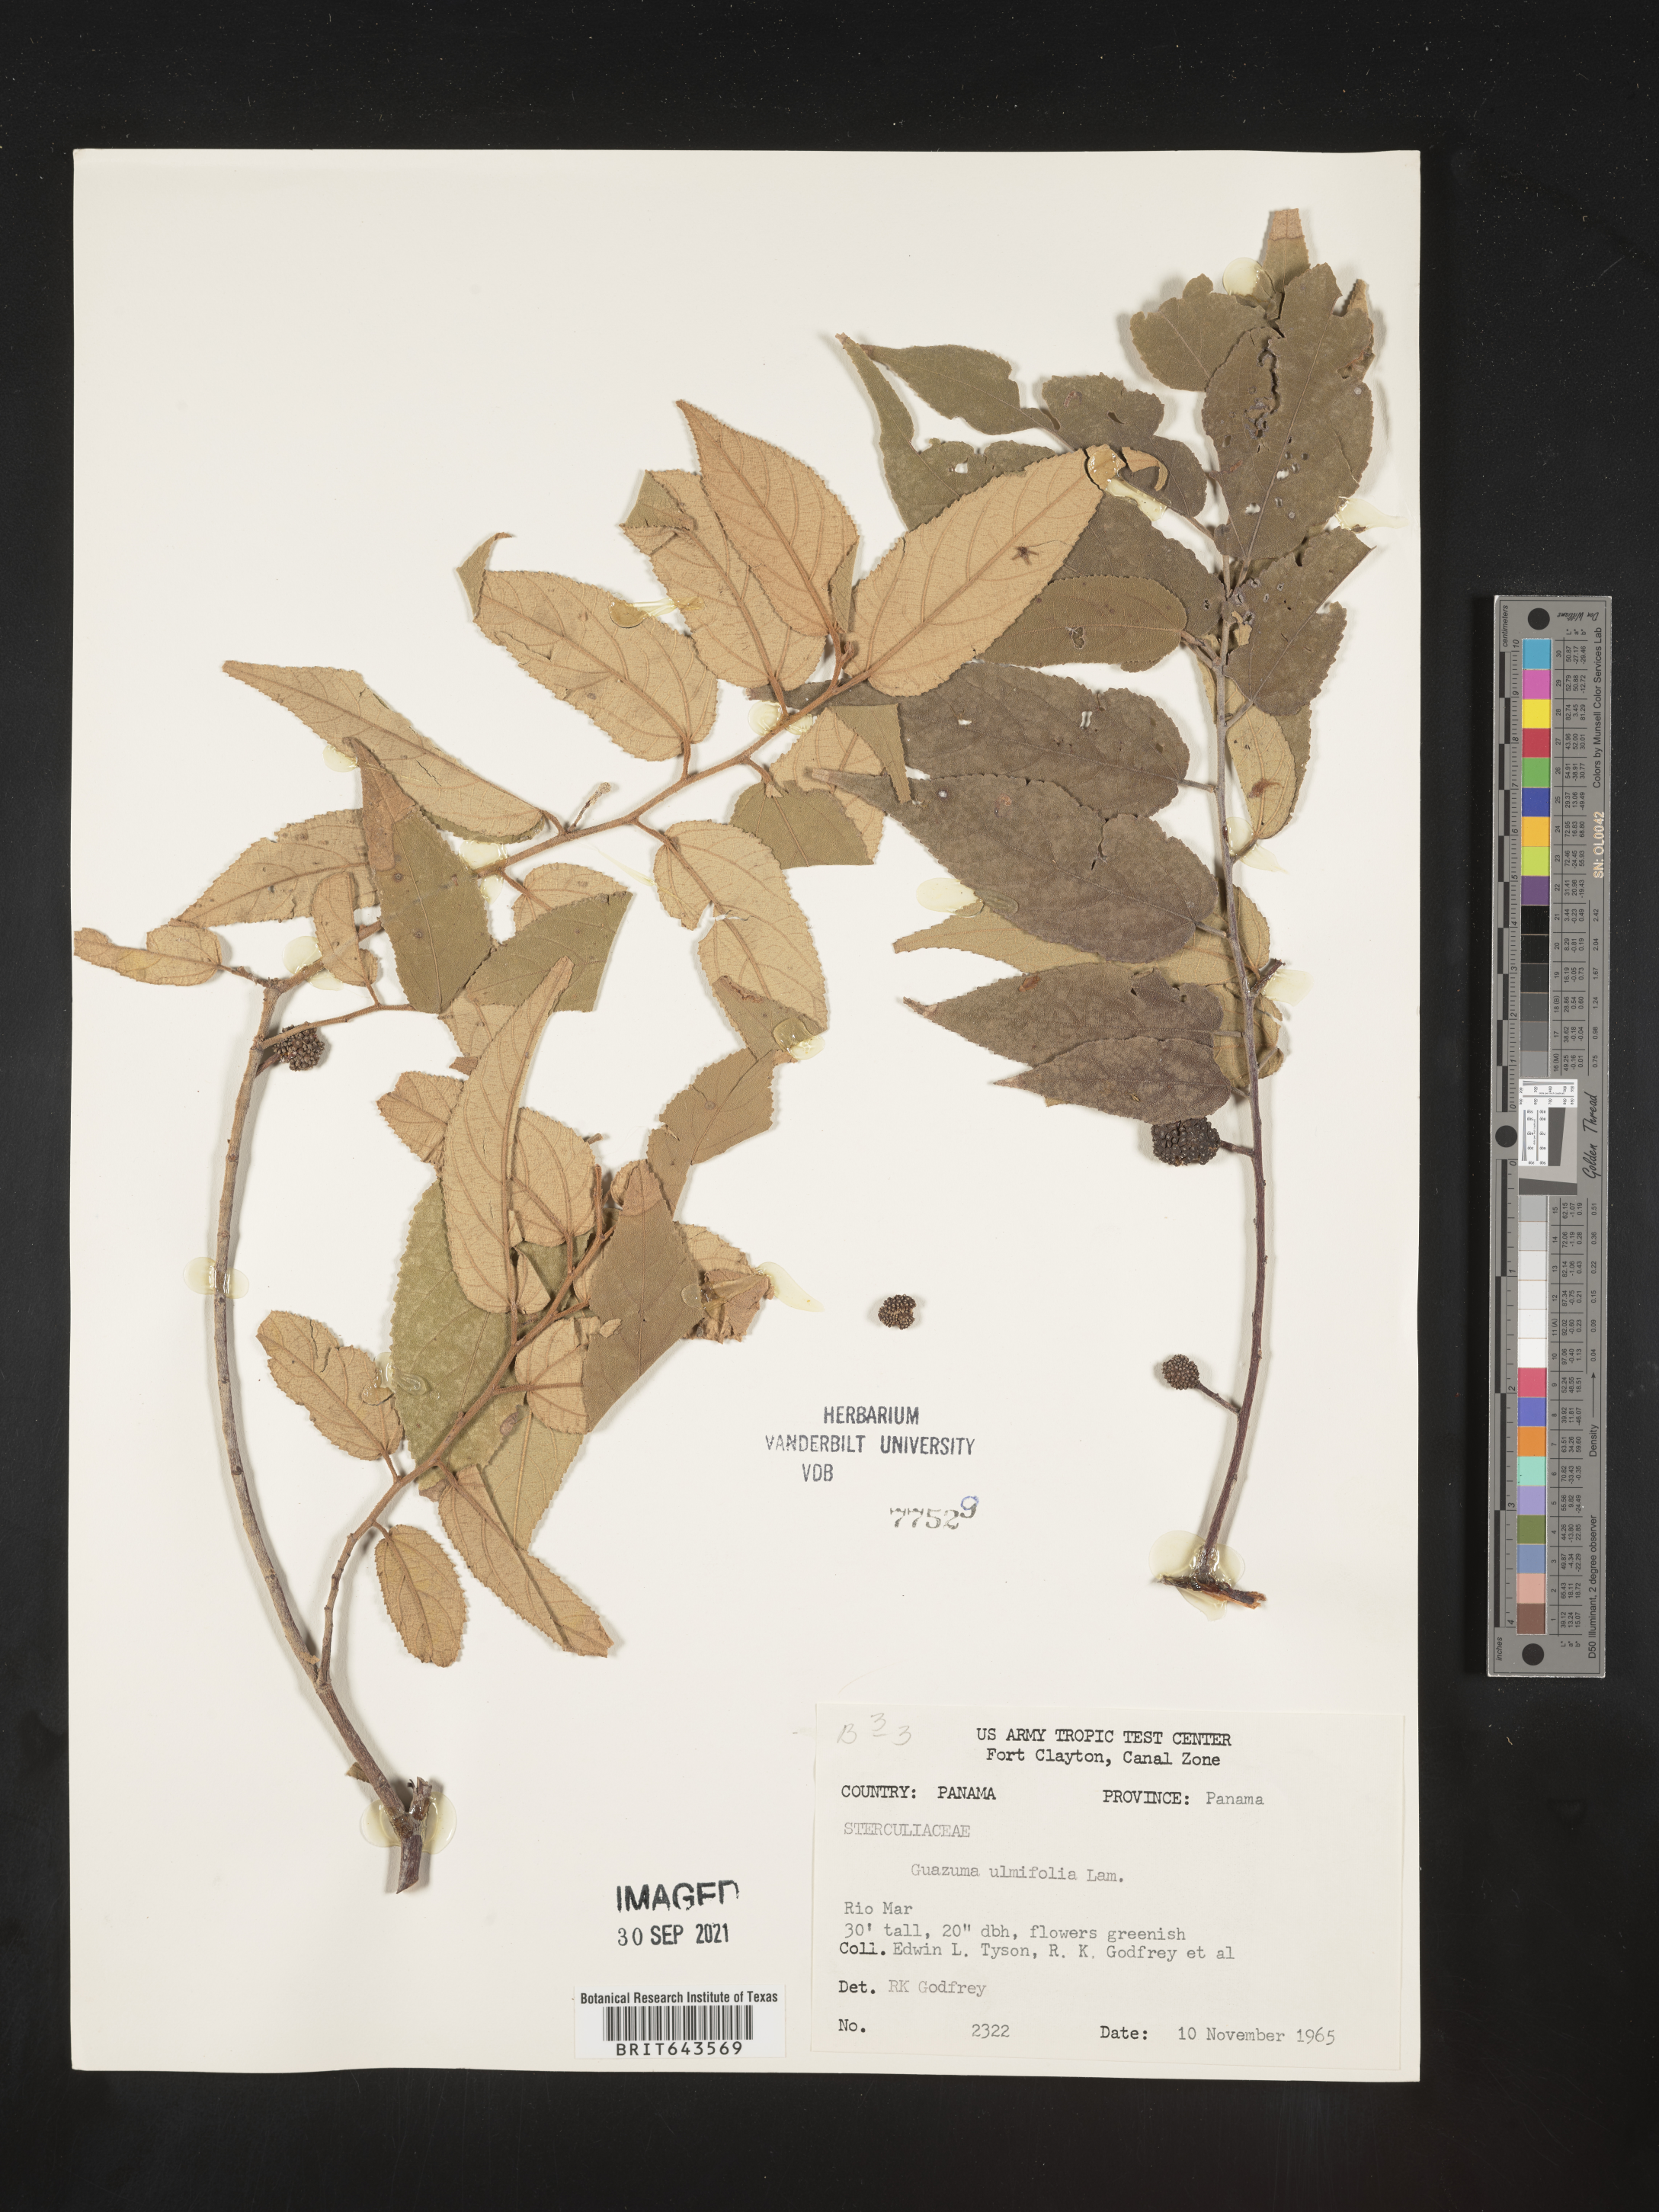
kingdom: Plantae
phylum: Tracheophyta
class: Magnoliopsida
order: Malvales
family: Malvaceae
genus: Guazuma
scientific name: Guazuma
